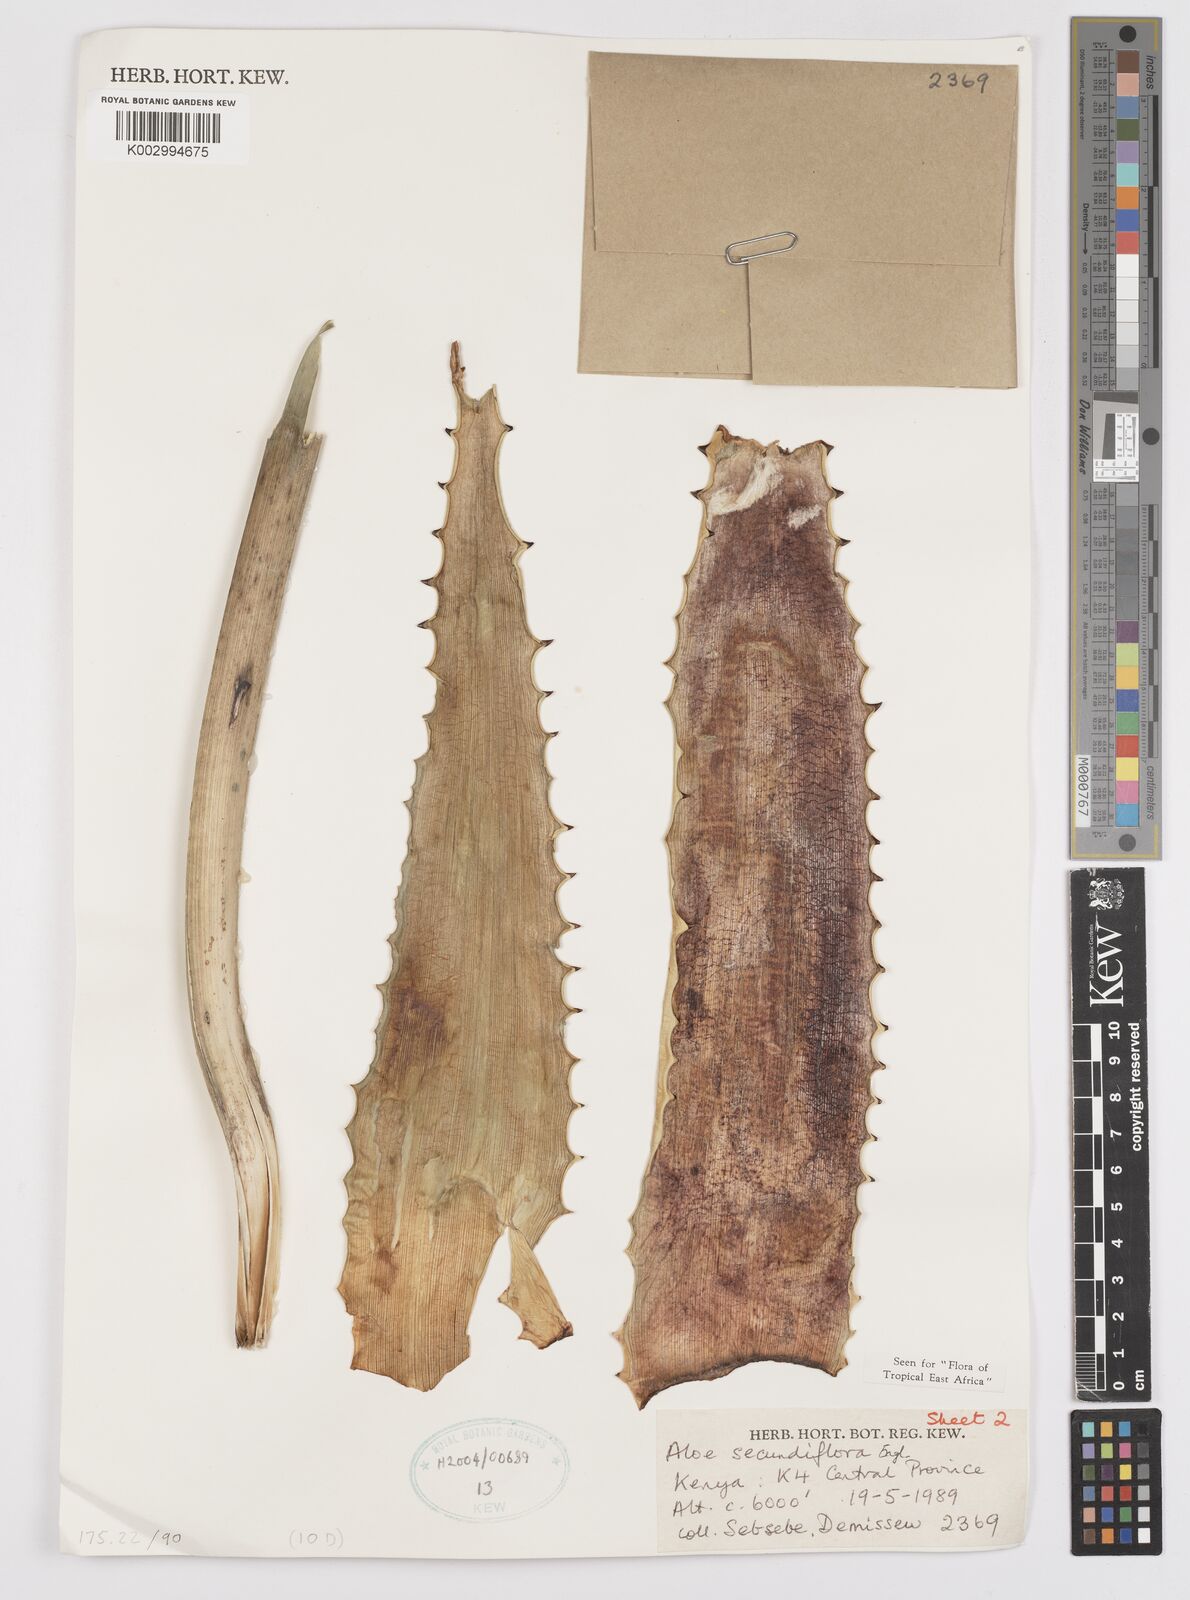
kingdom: Plantae
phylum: Tracheophyta
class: Liliopsida
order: Asparagales
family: Asphodelaceae
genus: Aloe
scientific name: Aloe secundiflora
